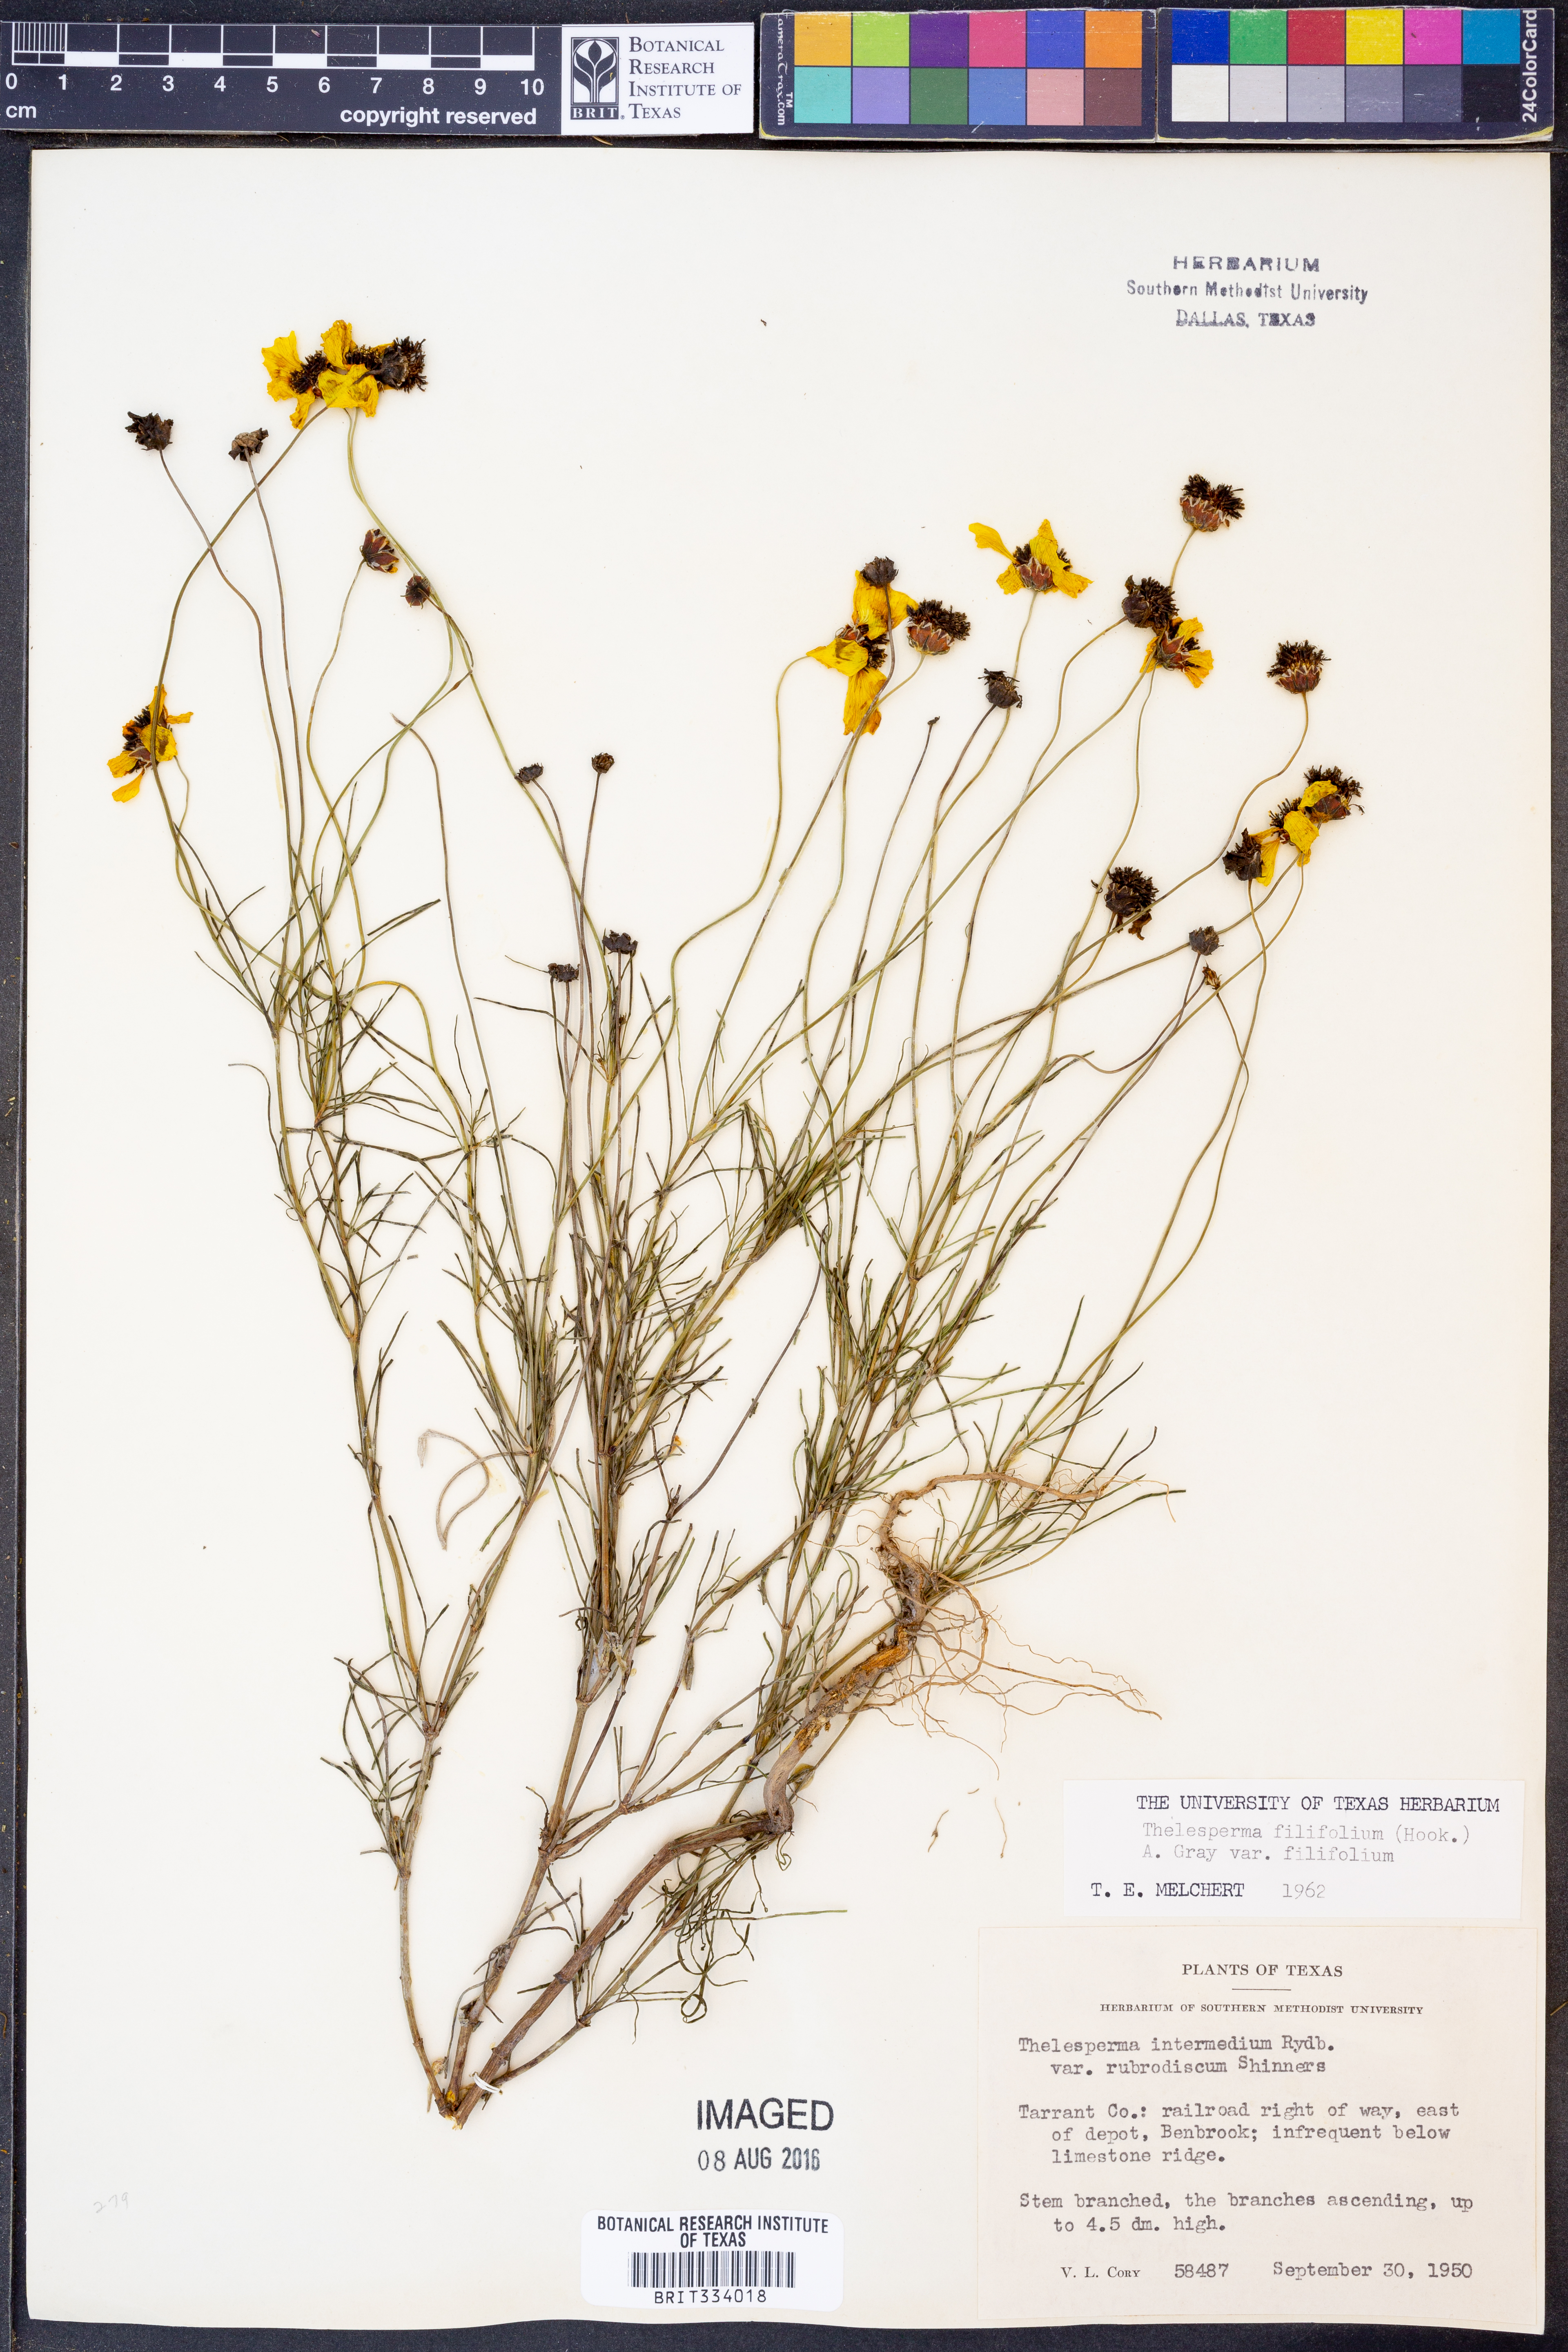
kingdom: Plantae
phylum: Tracheophyta
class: Magnoliopsida
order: Asterales
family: Asteraceae
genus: Thelesperma
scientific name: Thelesperma filifolium
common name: Stiff greenthread
